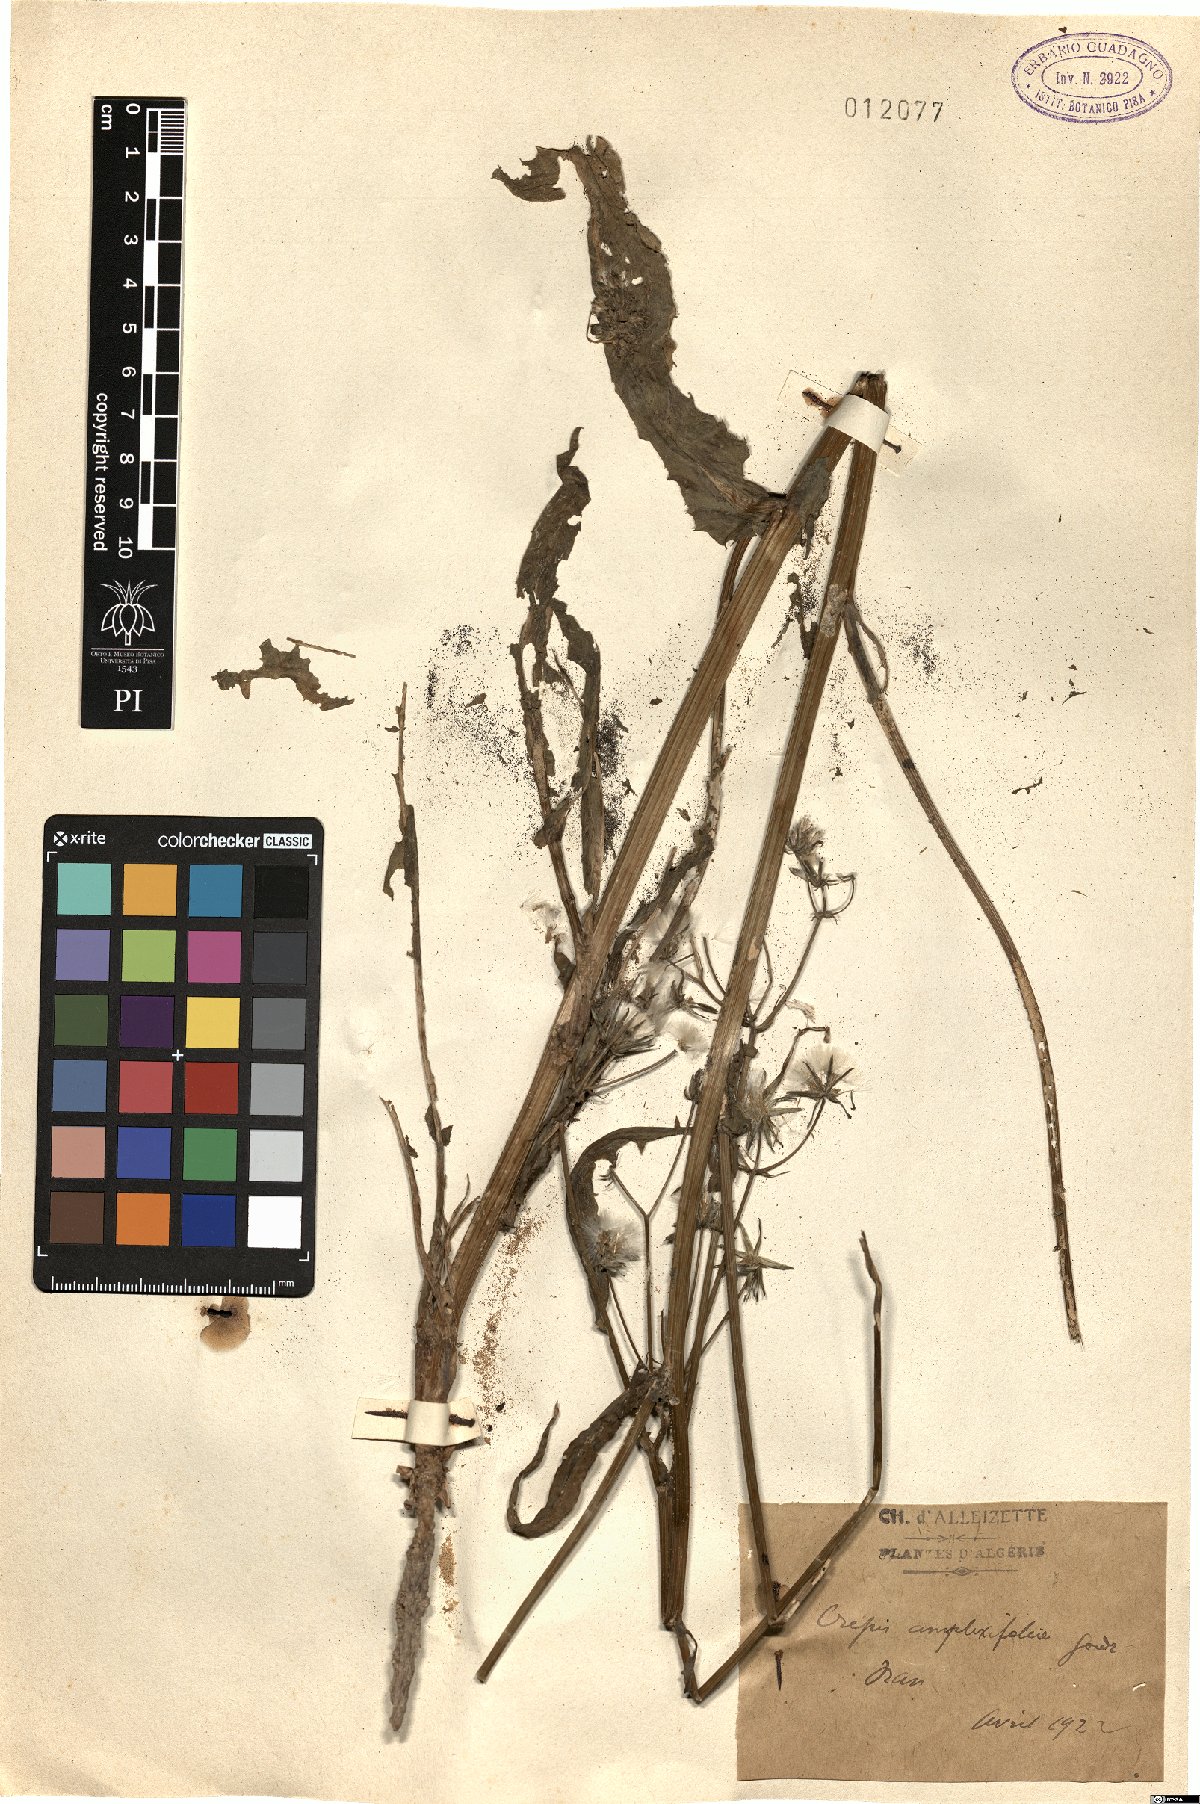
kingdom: Plantae
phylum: Tracheophyta
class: Magnoliopsida
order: Asterales
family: Asteraceae
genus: Crepis
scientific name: Crepis amplexifolia
